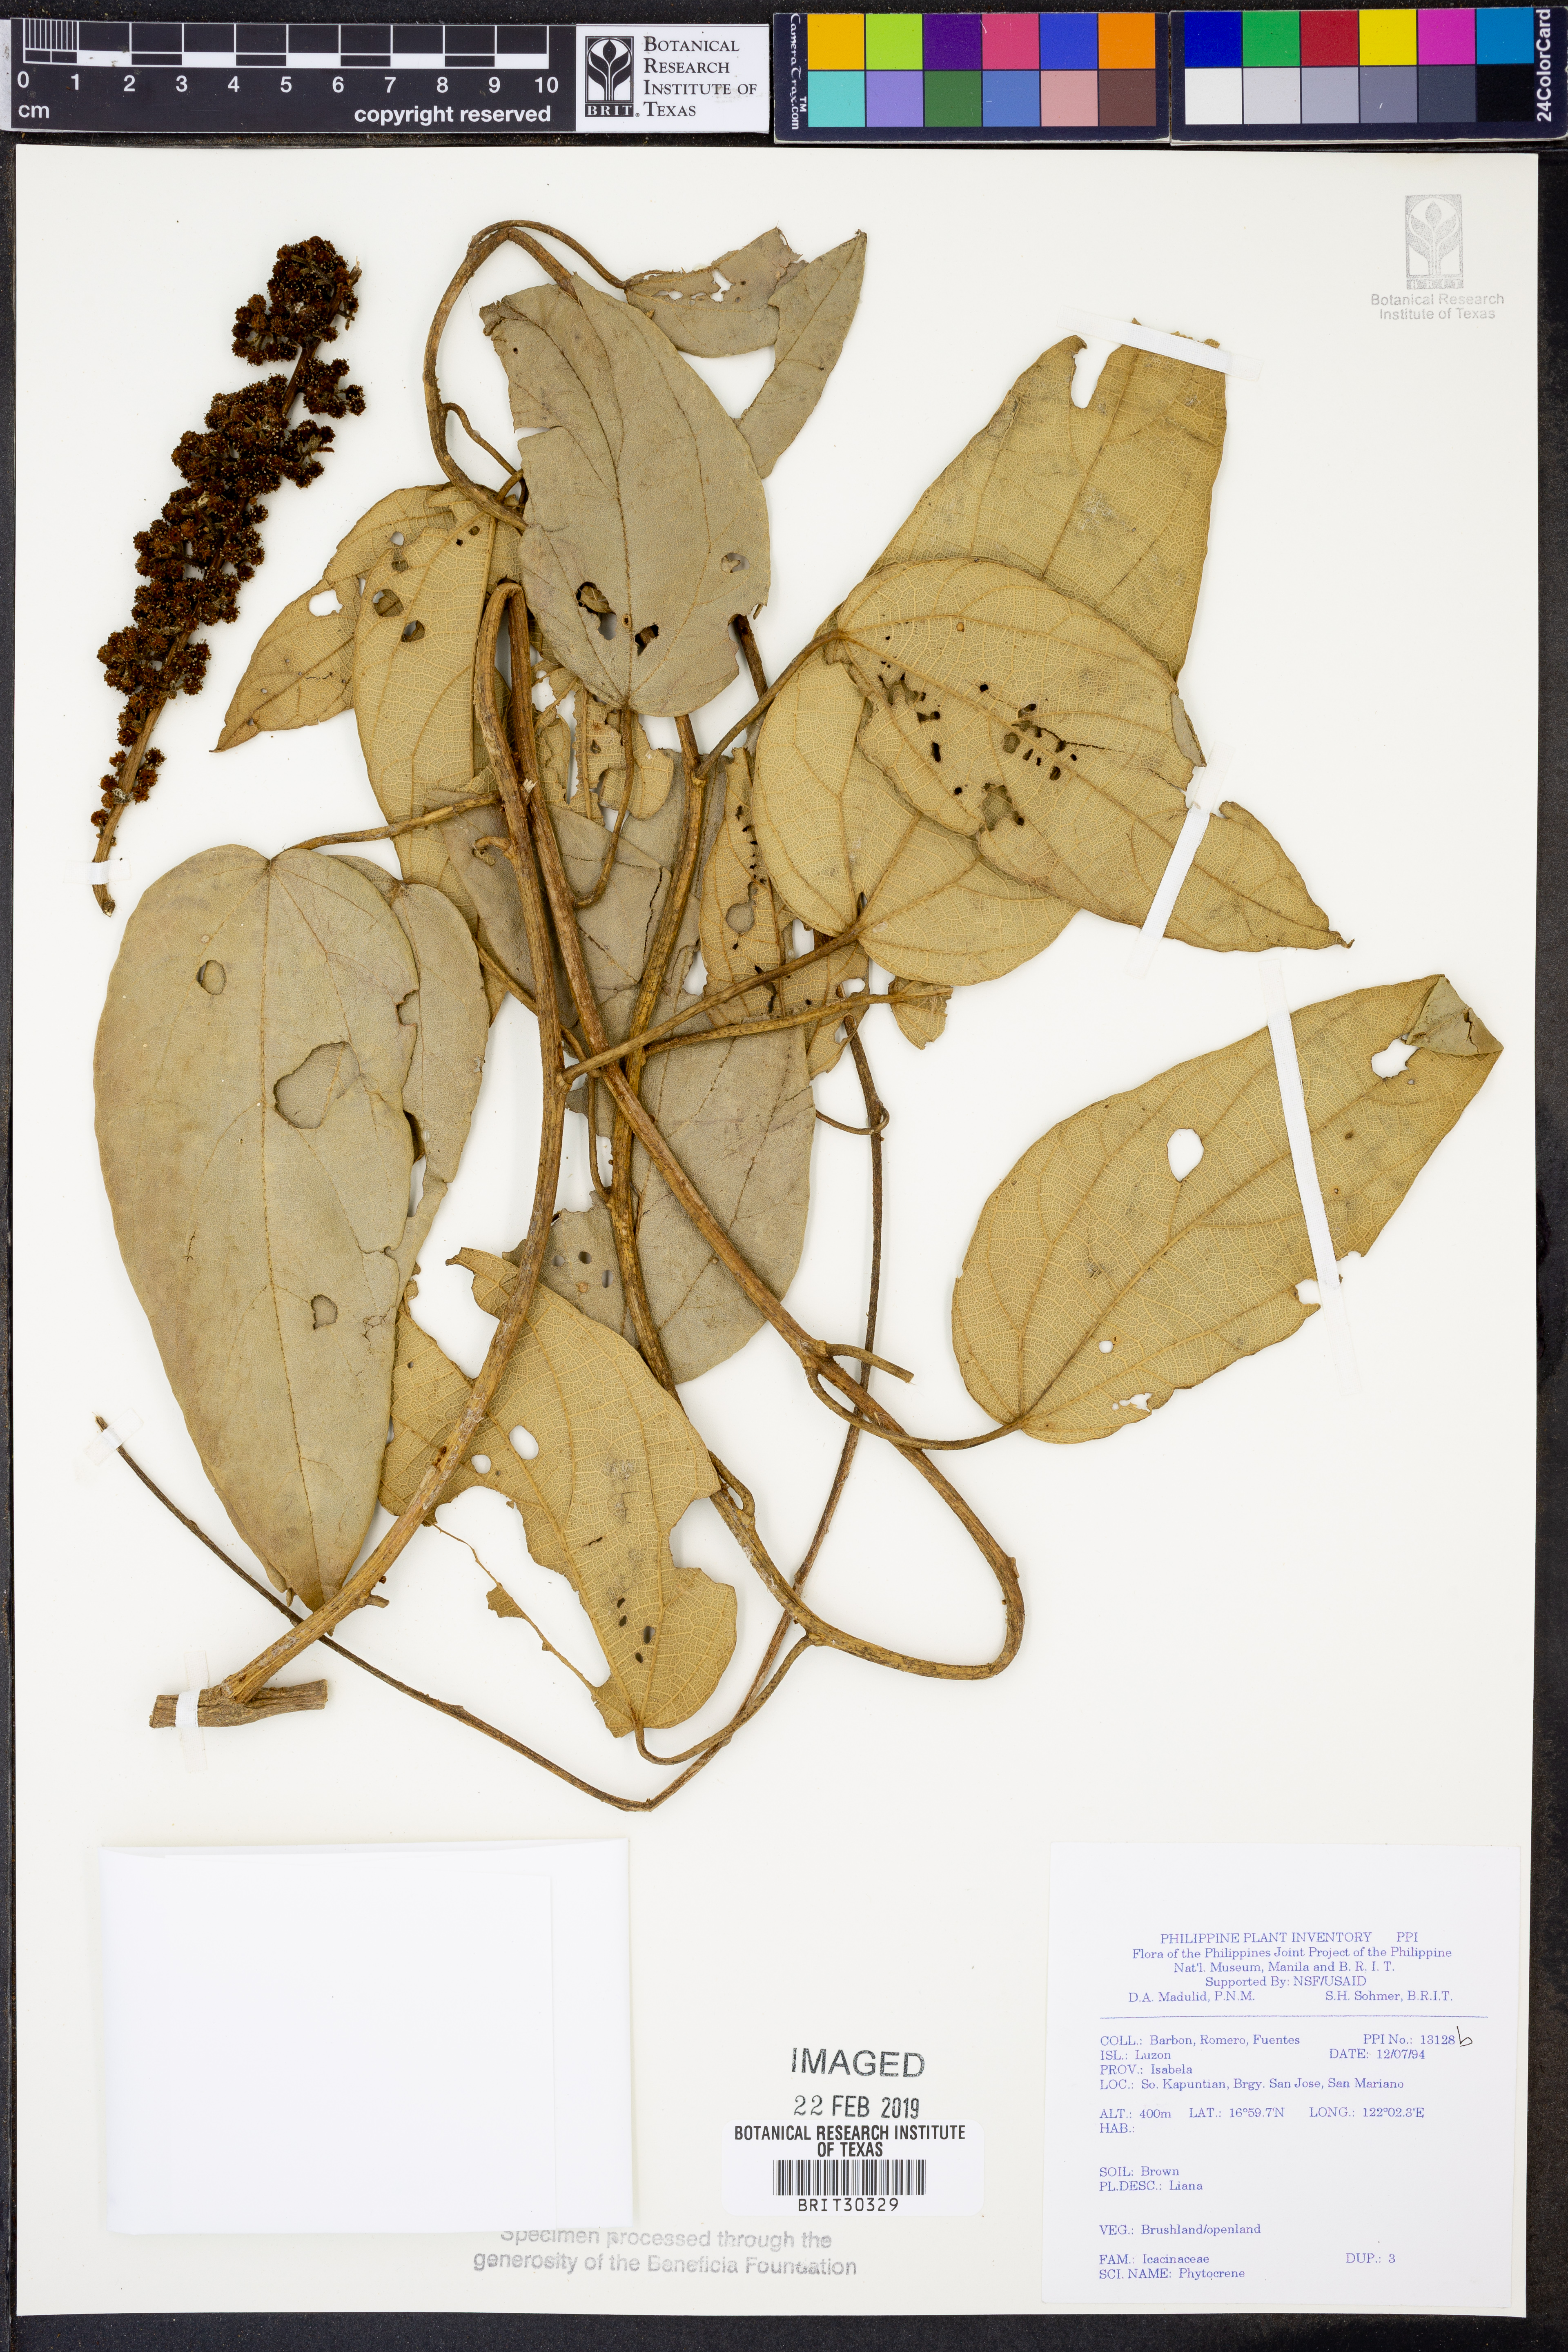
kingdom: Plantae
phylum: Tracheophyta
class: Magnoliopsida
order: Icacinales
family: Icacinaceae
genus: Phytocrene
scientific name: Phytocrene
